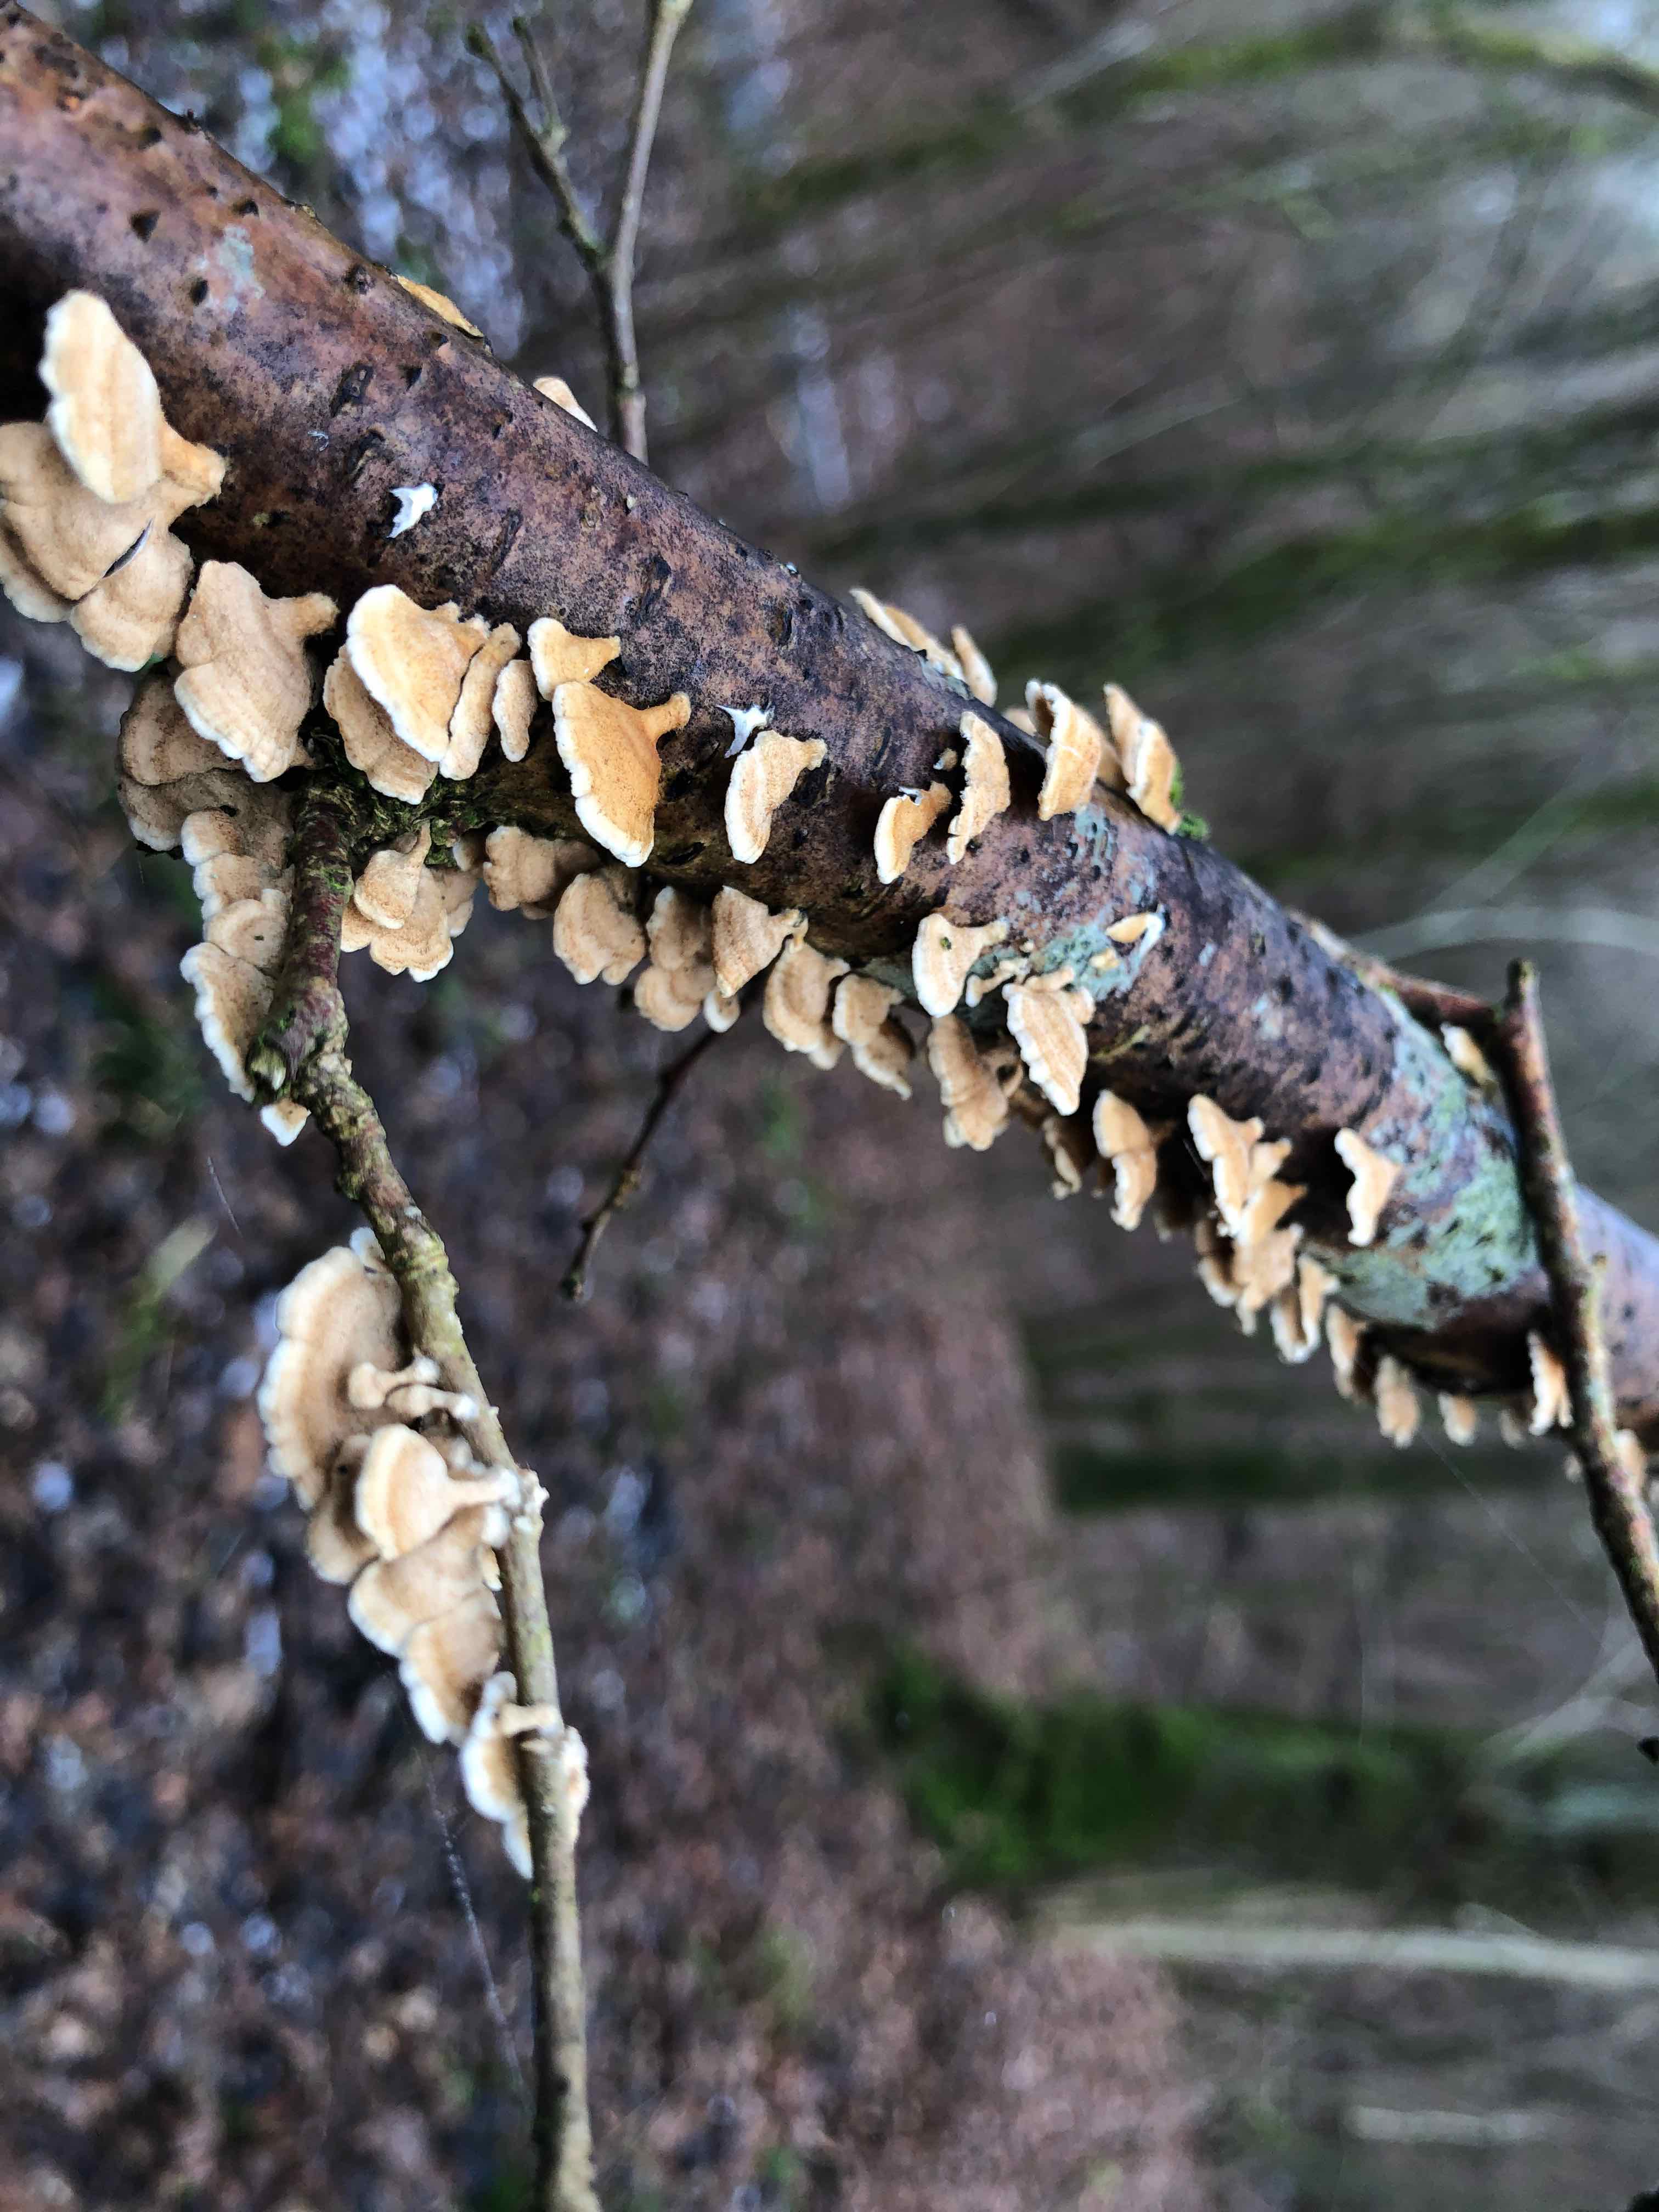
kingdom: Fungi
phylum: Basidiomycota
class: Agaricomycetes
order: Amylocorticiales
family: Amylocorticiaceae
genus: Plicaturopsis
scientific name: Plicaturopsis crispa
